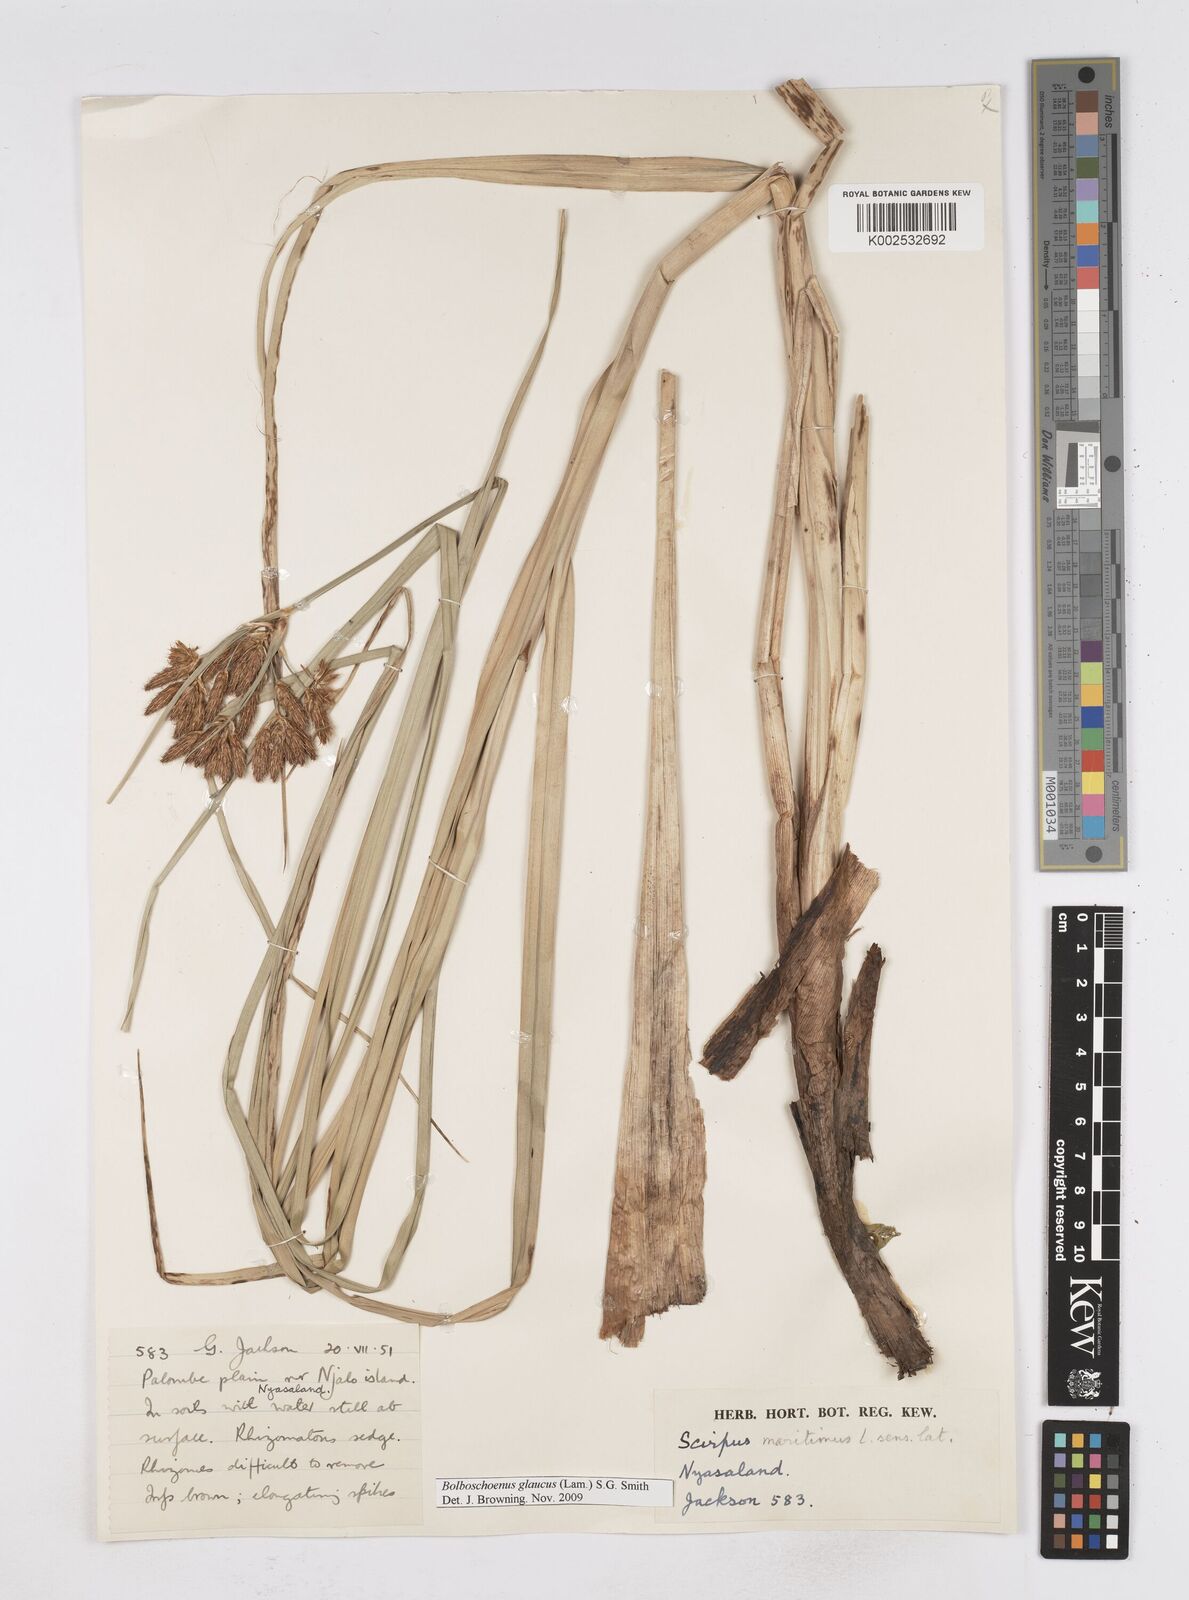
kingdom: Plantae
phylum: Tracheophyta
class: Liliopsida
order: Poales
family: Cyperaceae
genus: Bolboschoenus
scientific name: Bolboschoenus glaucus
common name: Tuberous bulrush
